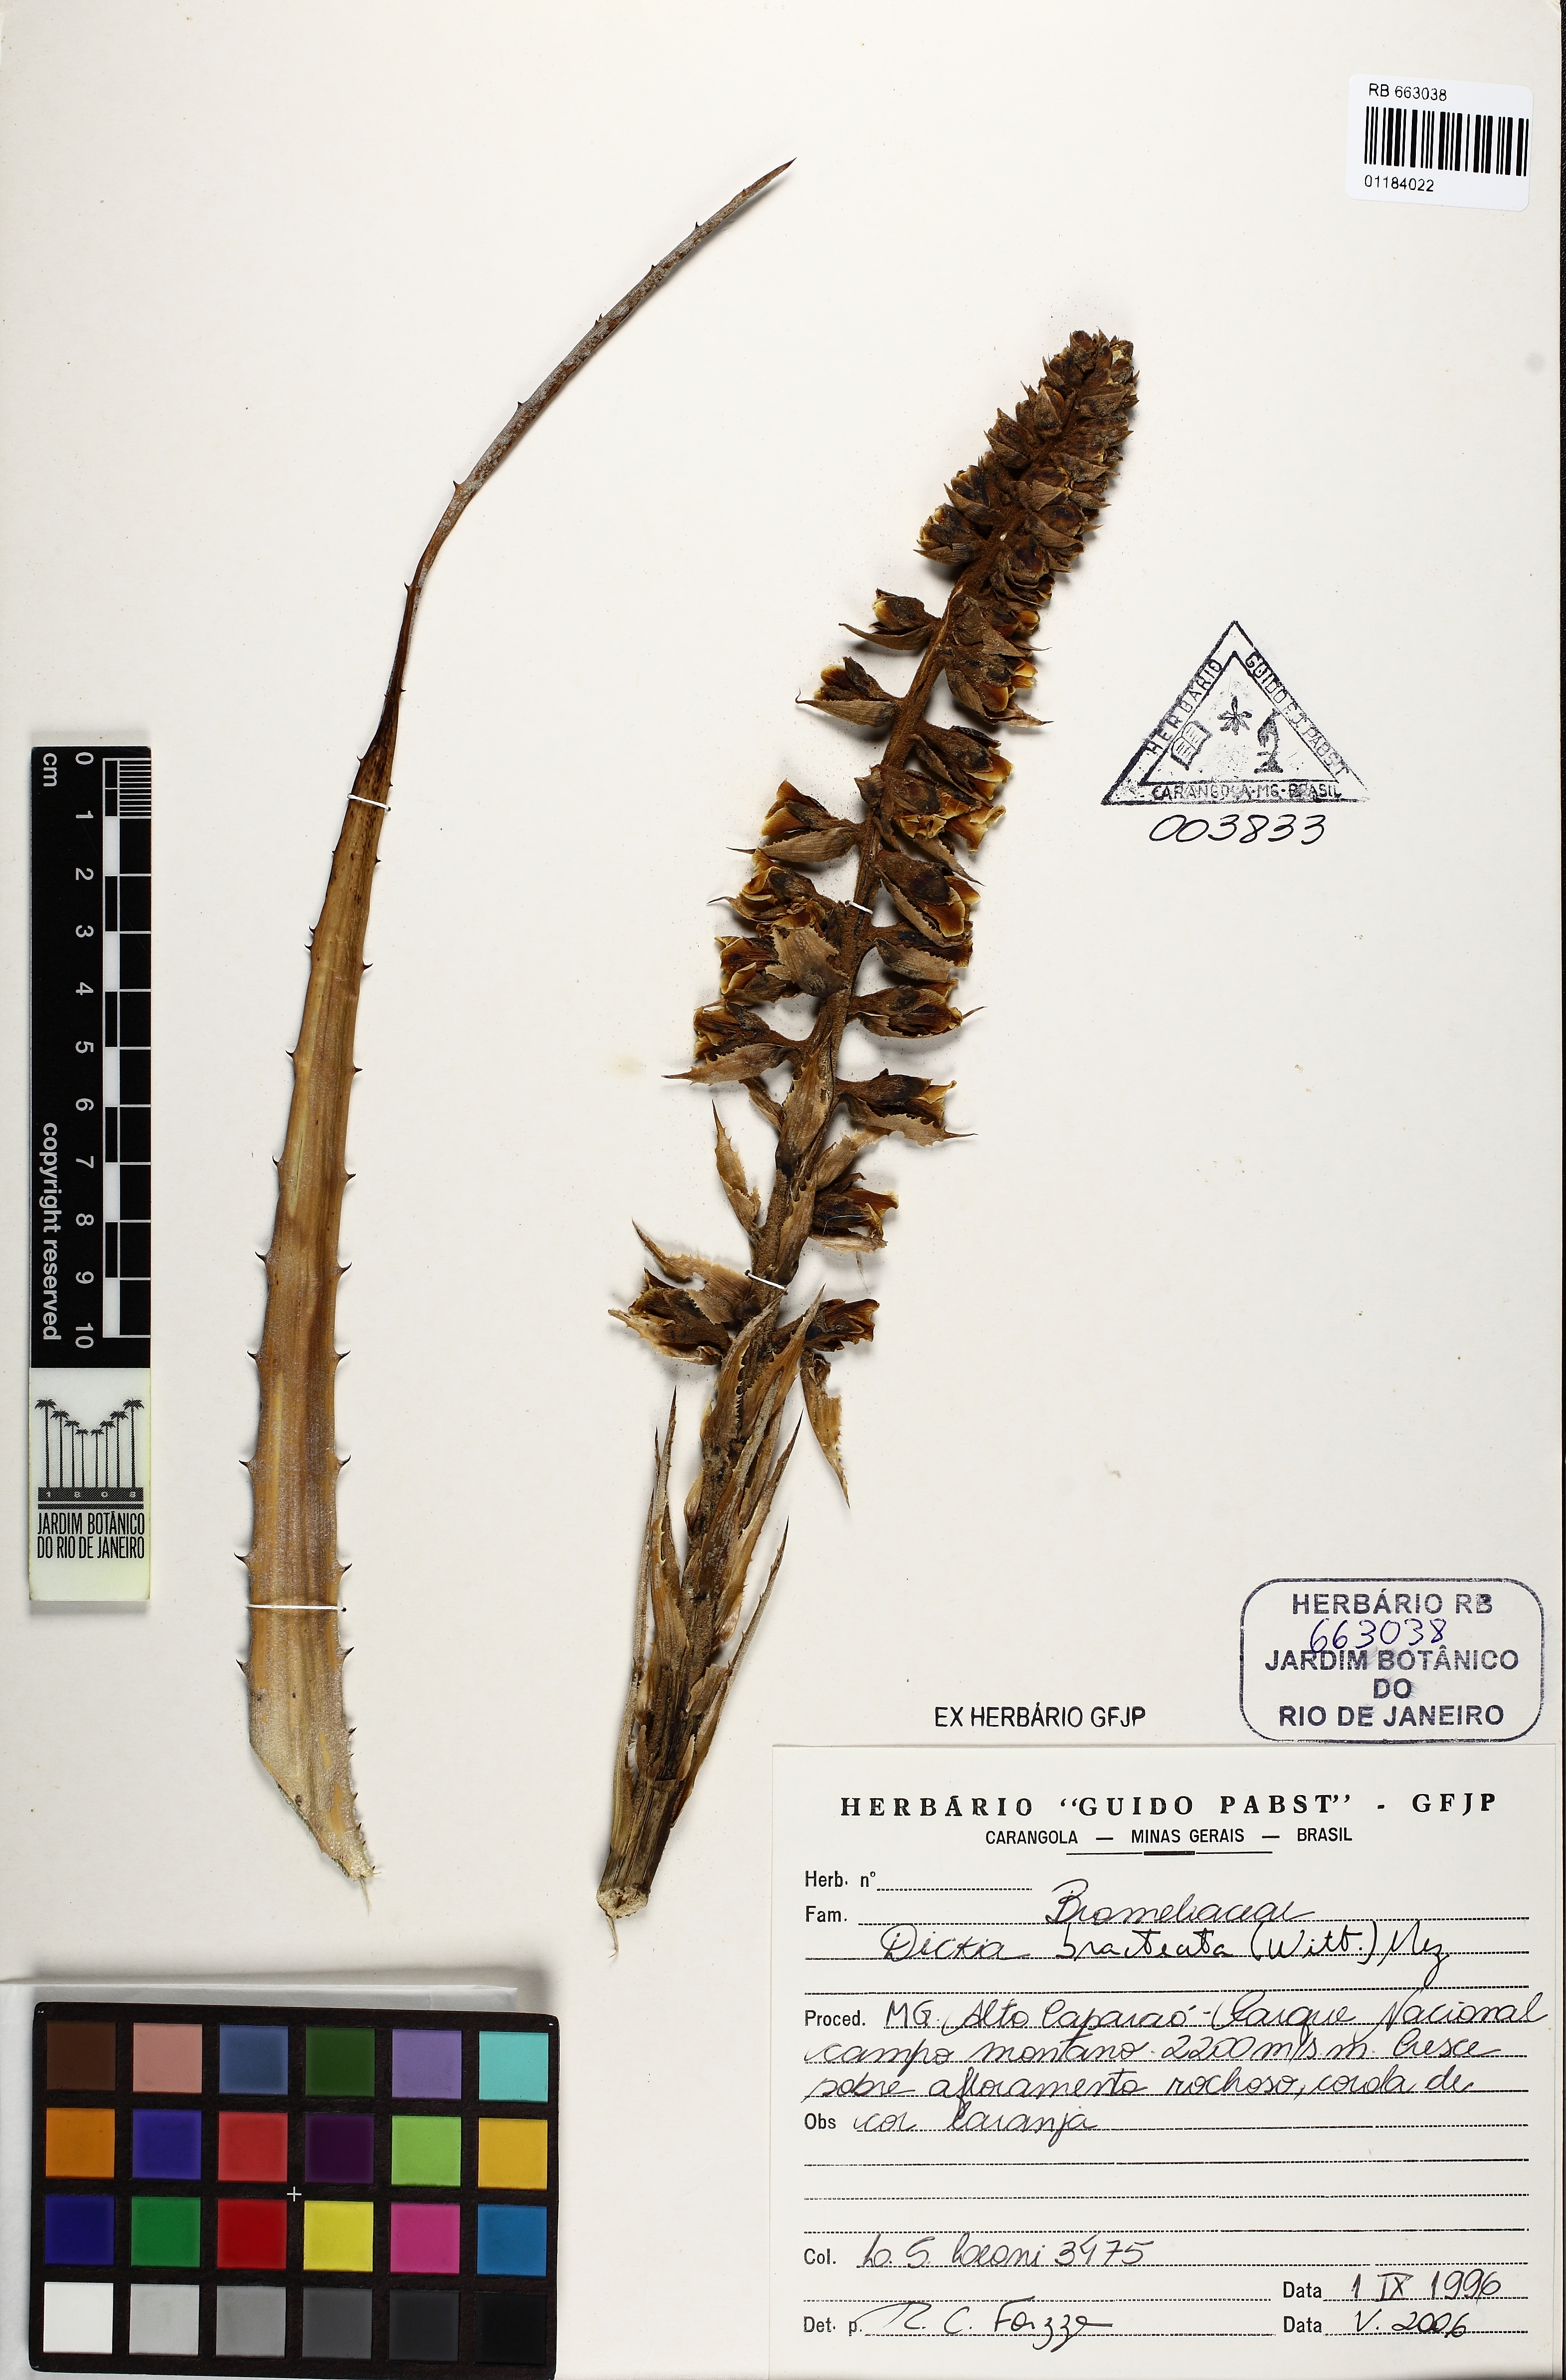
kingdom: Plantae
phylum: Tracheophyta
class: Liliopsida
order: Poales
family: Bromeliaceae
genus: Dyckia
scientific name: Dyckia bracteata
